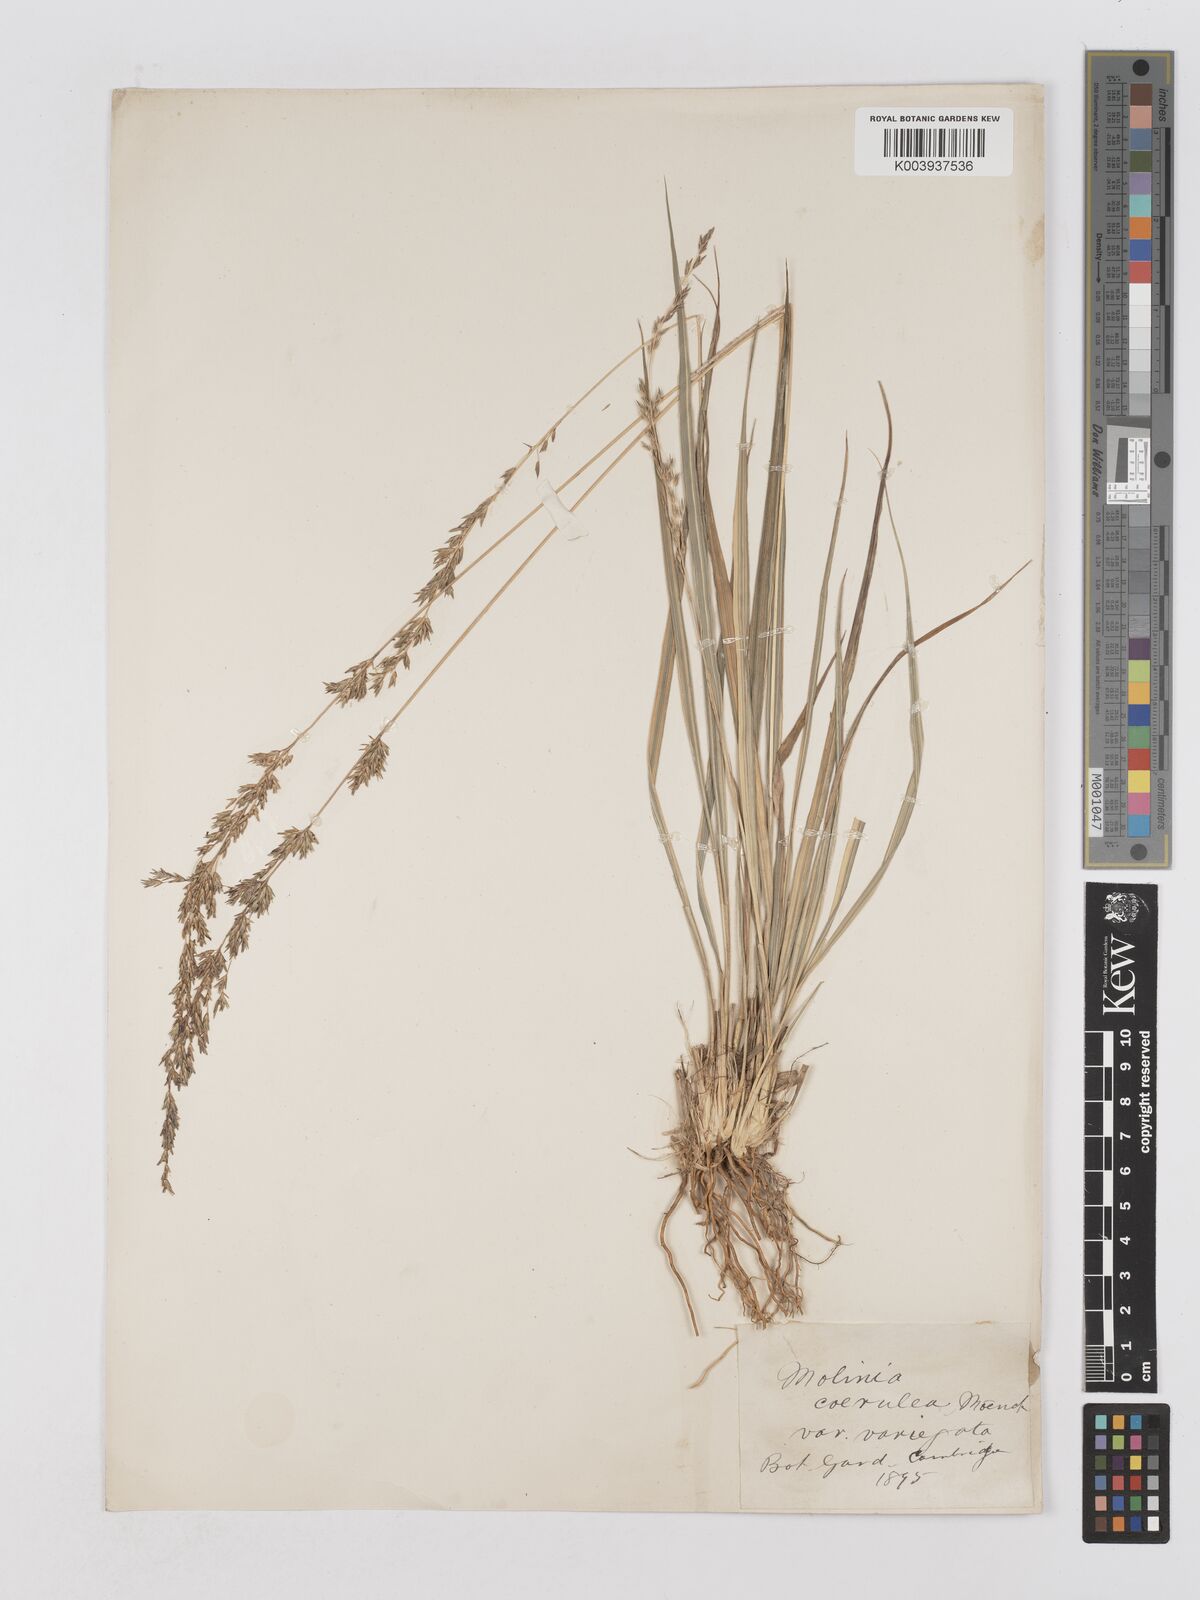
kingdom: Plantae
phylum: Tracheophyta
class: Liliopsida
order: Poales
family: Poaceae
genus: Molinia
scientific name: Molinia caerulea
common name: Purple moor-grass
